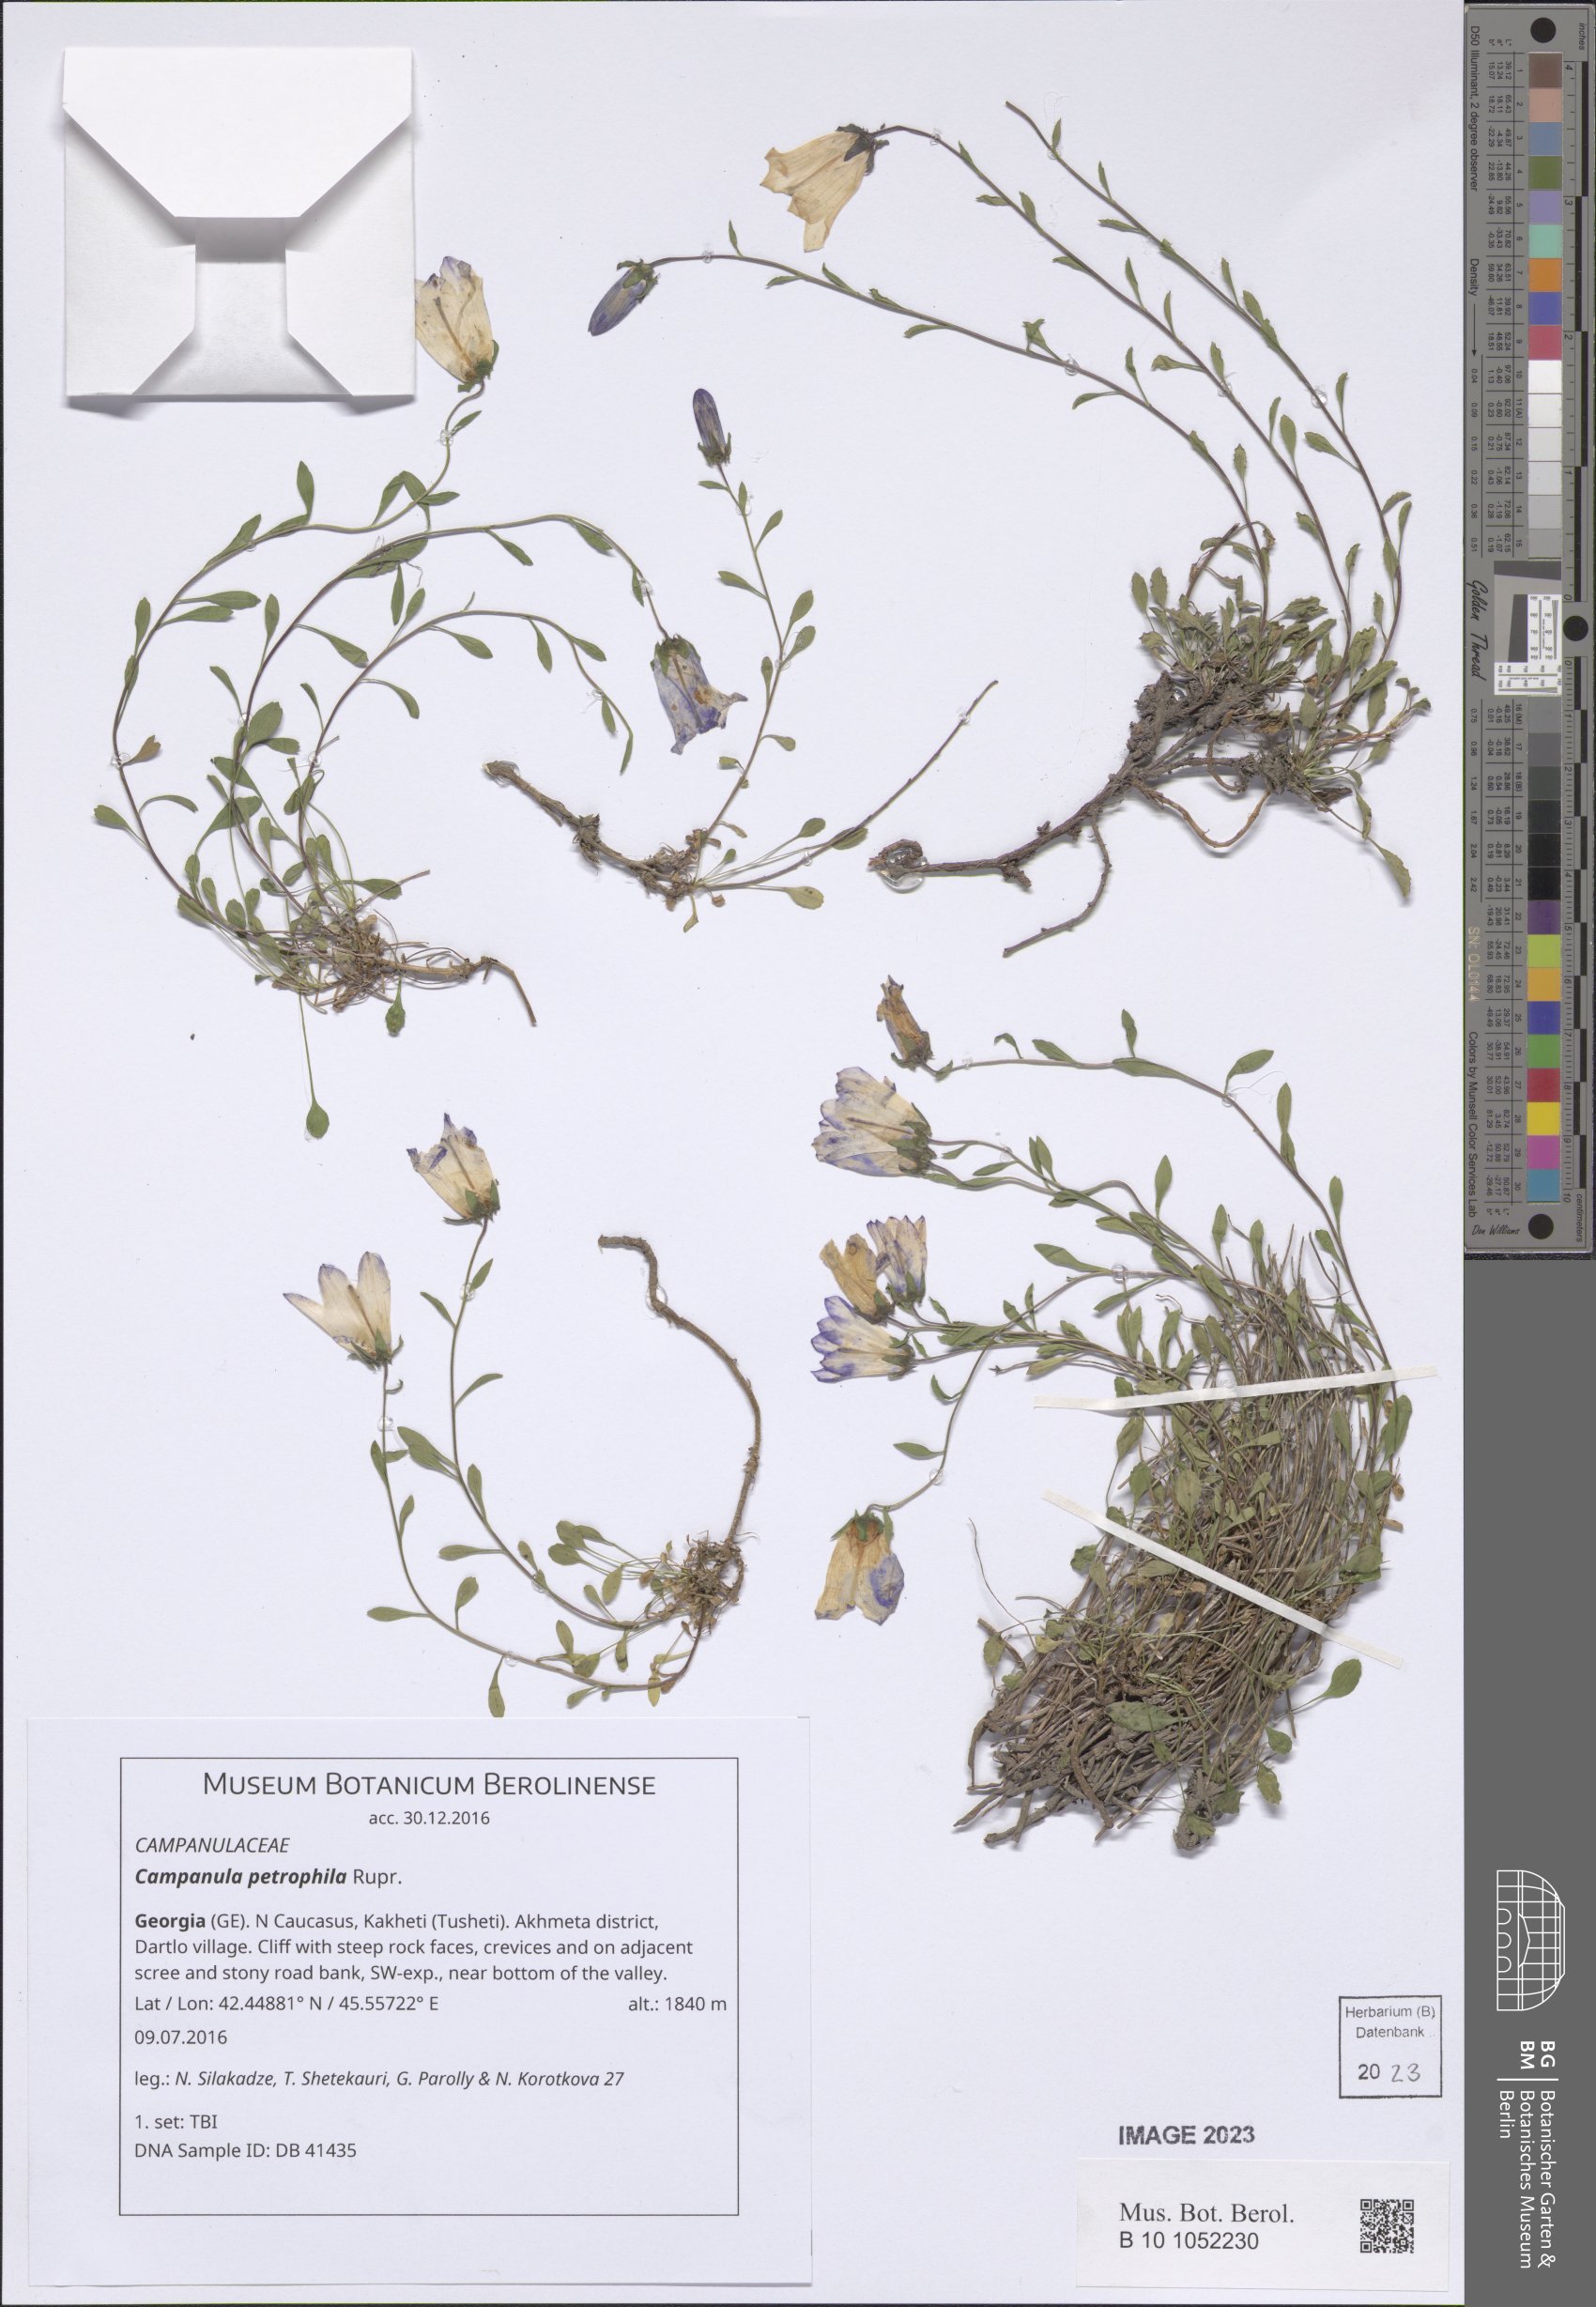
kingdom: Plantae
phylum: Tracheophyta
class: Magnoliopsida
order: Asterales
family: Campanulaceae
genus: Campanula
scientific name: Campanula petrophila
